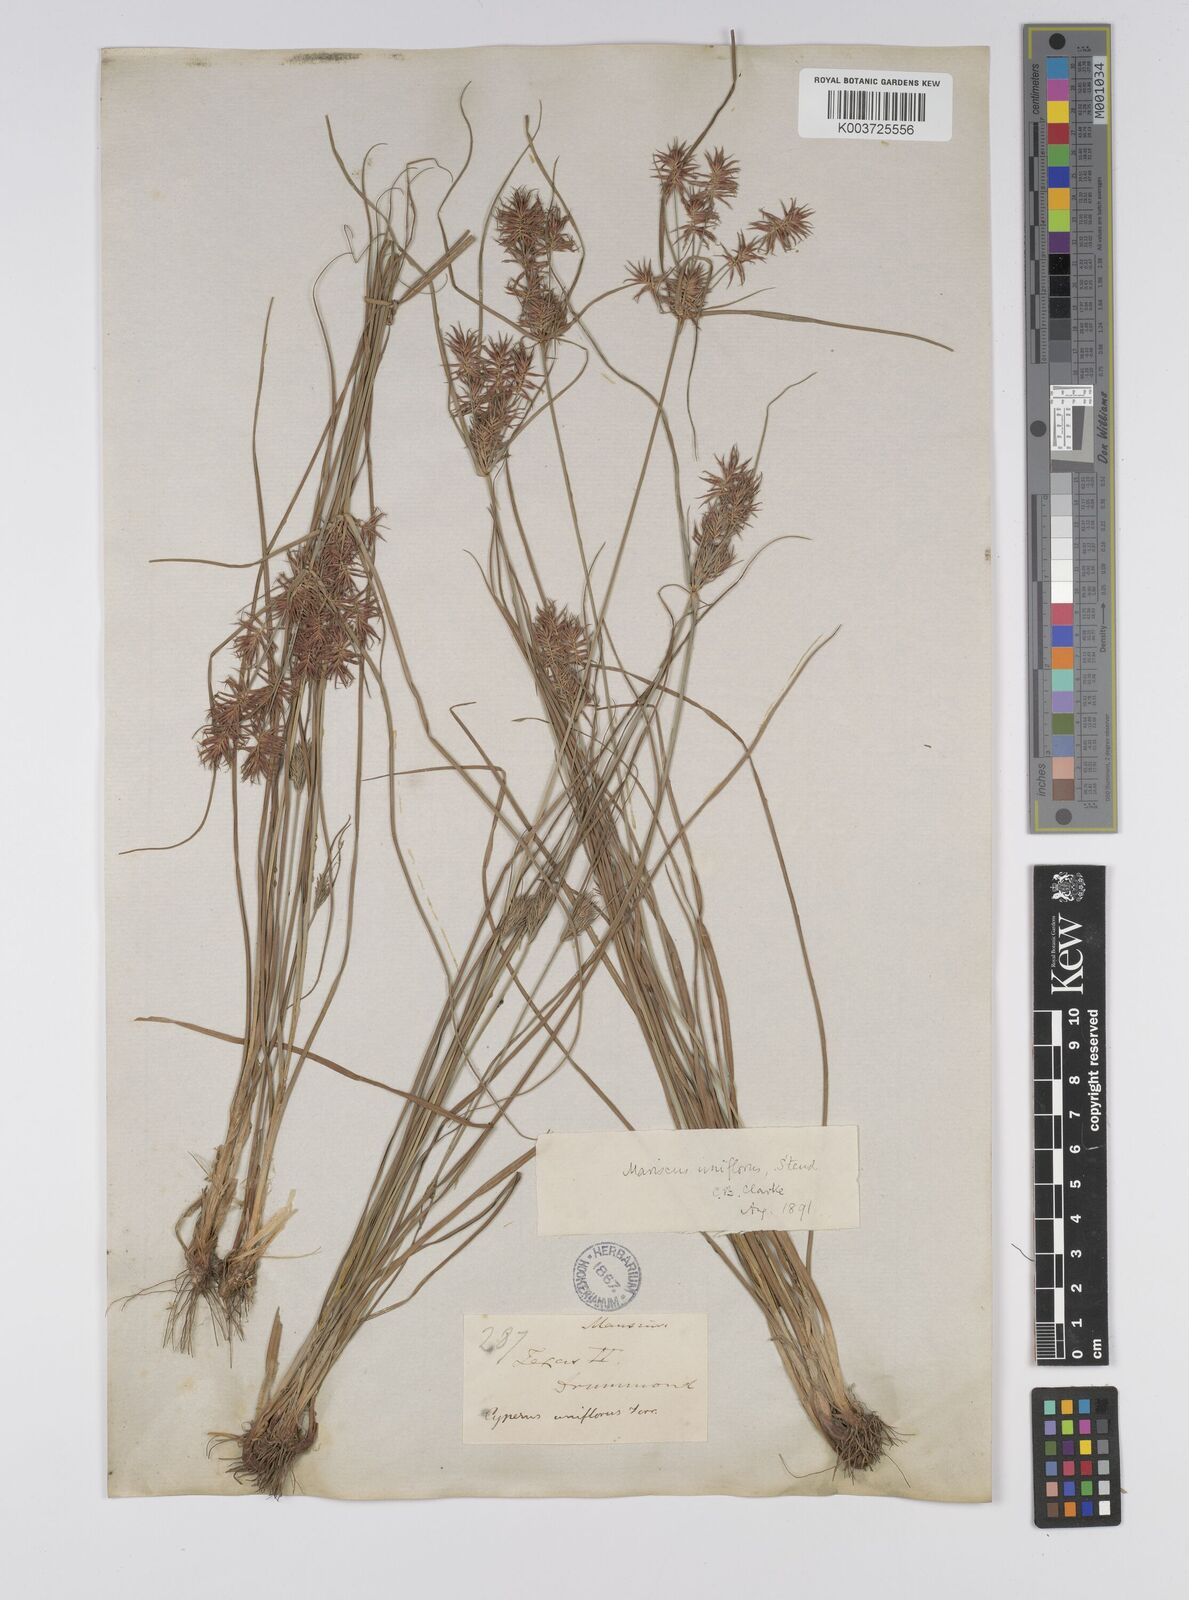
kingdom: Plantae
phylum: Tracheophyta
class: Liliopsida
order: Poales
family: Cyperaceae
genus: Cyperus
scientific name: Cyperus retroflexus
